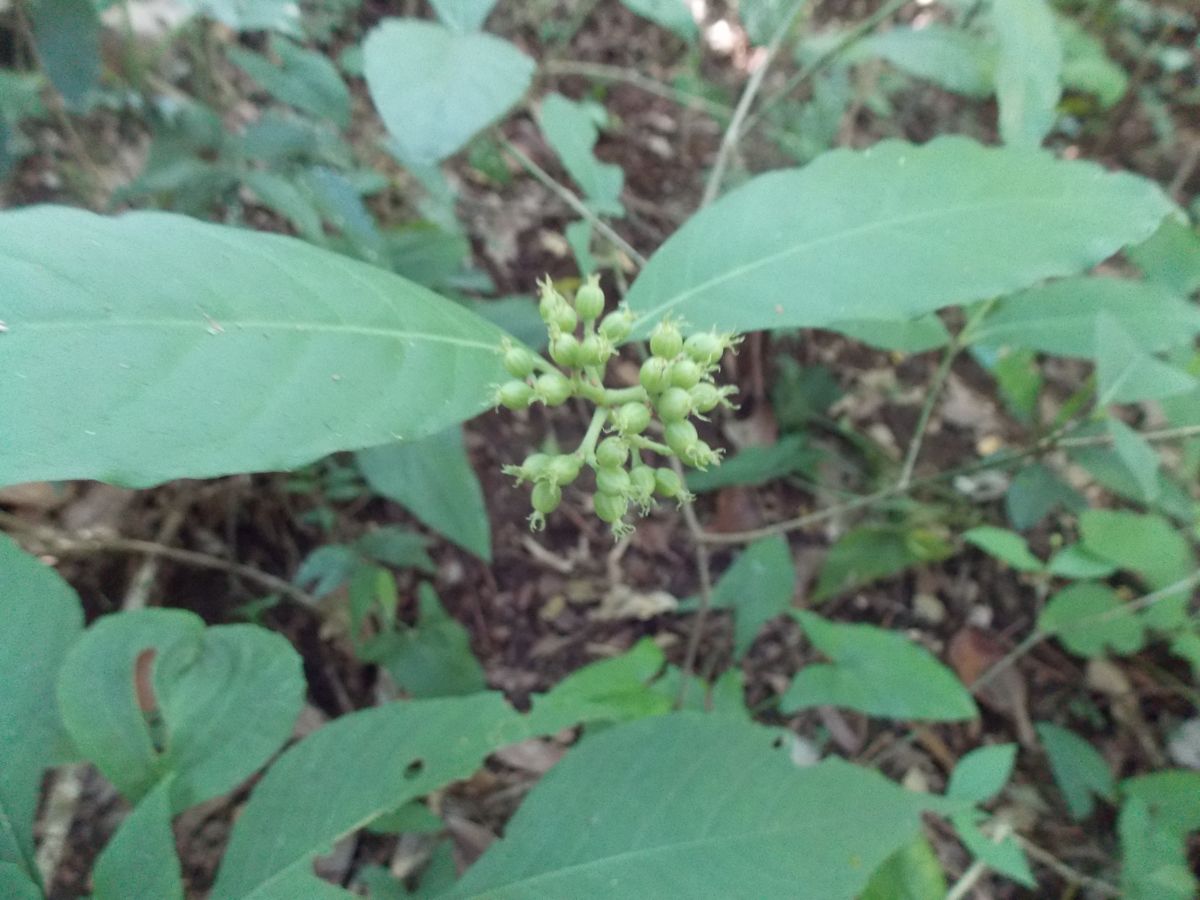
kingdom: Plantae
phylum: Tracheophyta
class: Magnoliopsida
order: Gentianales
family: Rubiaceae
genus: Psychotria
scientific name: Psychotria horizontalis
